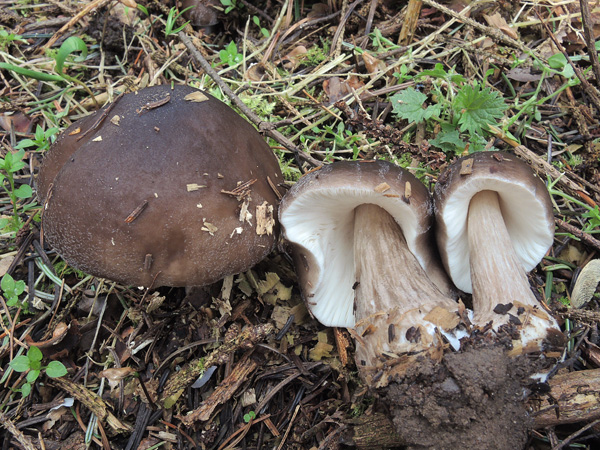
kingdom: Fungi
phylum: Basidiomycota
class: Agaricomycetes
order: Agaricales
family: Pluteaceae
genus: Pluteus
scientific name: Pluteus primus
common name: tidlig skærmhat
